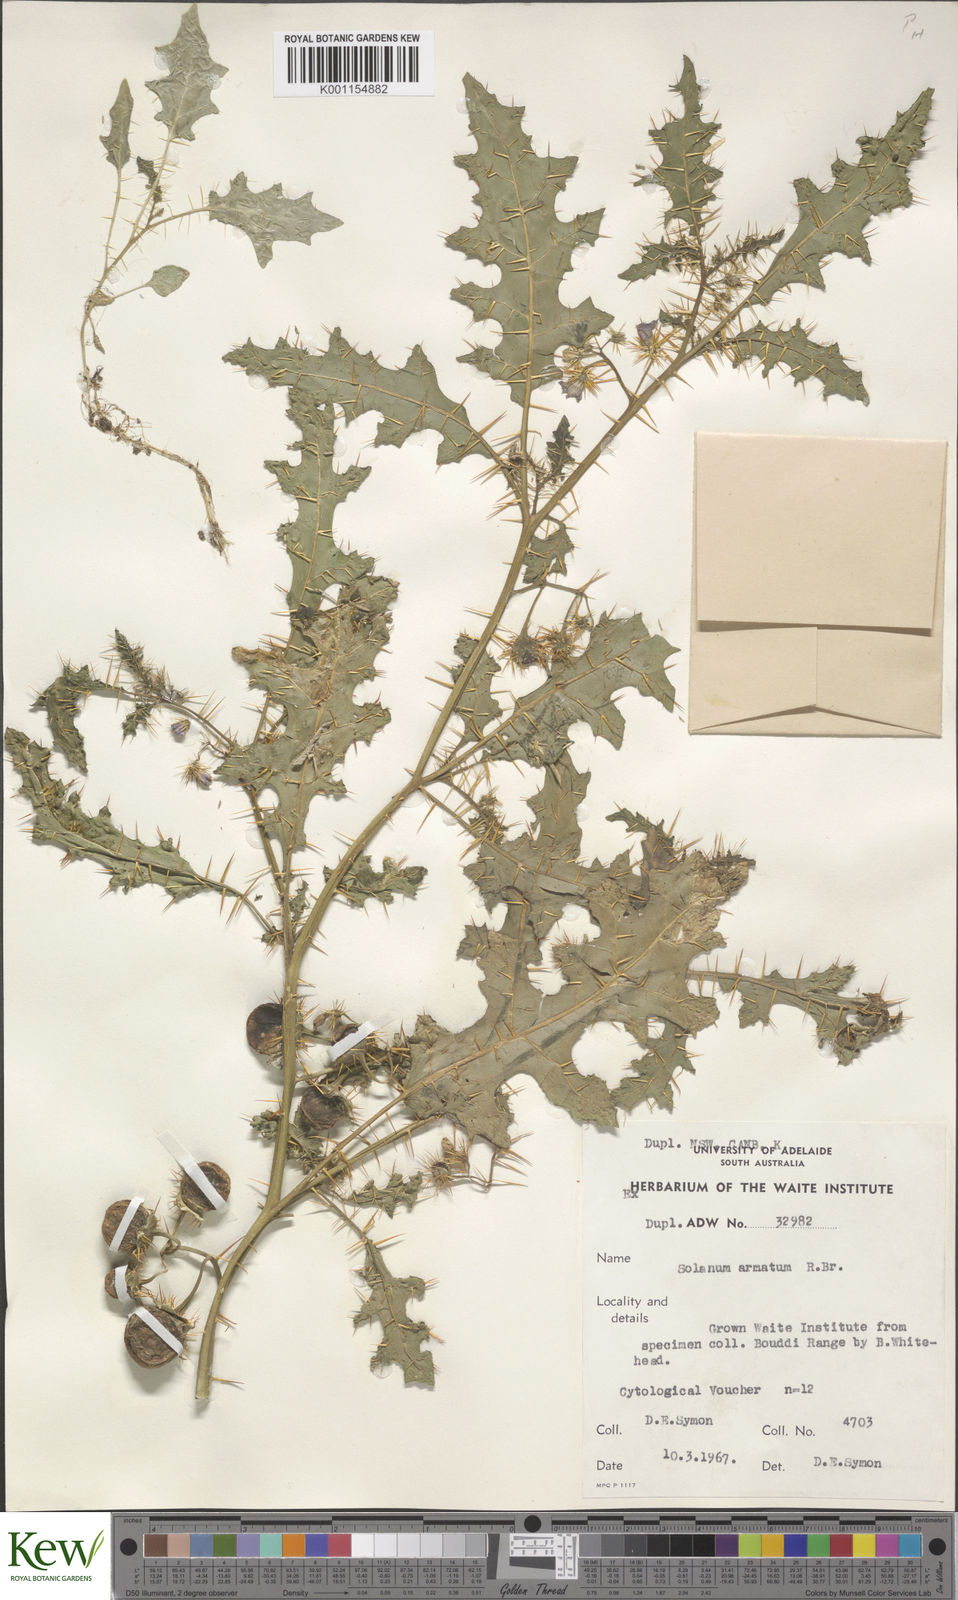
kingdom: Plantae
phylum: Tracheophyta
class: Magnoliopsida
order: Solanales
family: Solanaceae
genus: Solanum
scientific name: Solanum prinophyllum
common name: Forest nightshade
